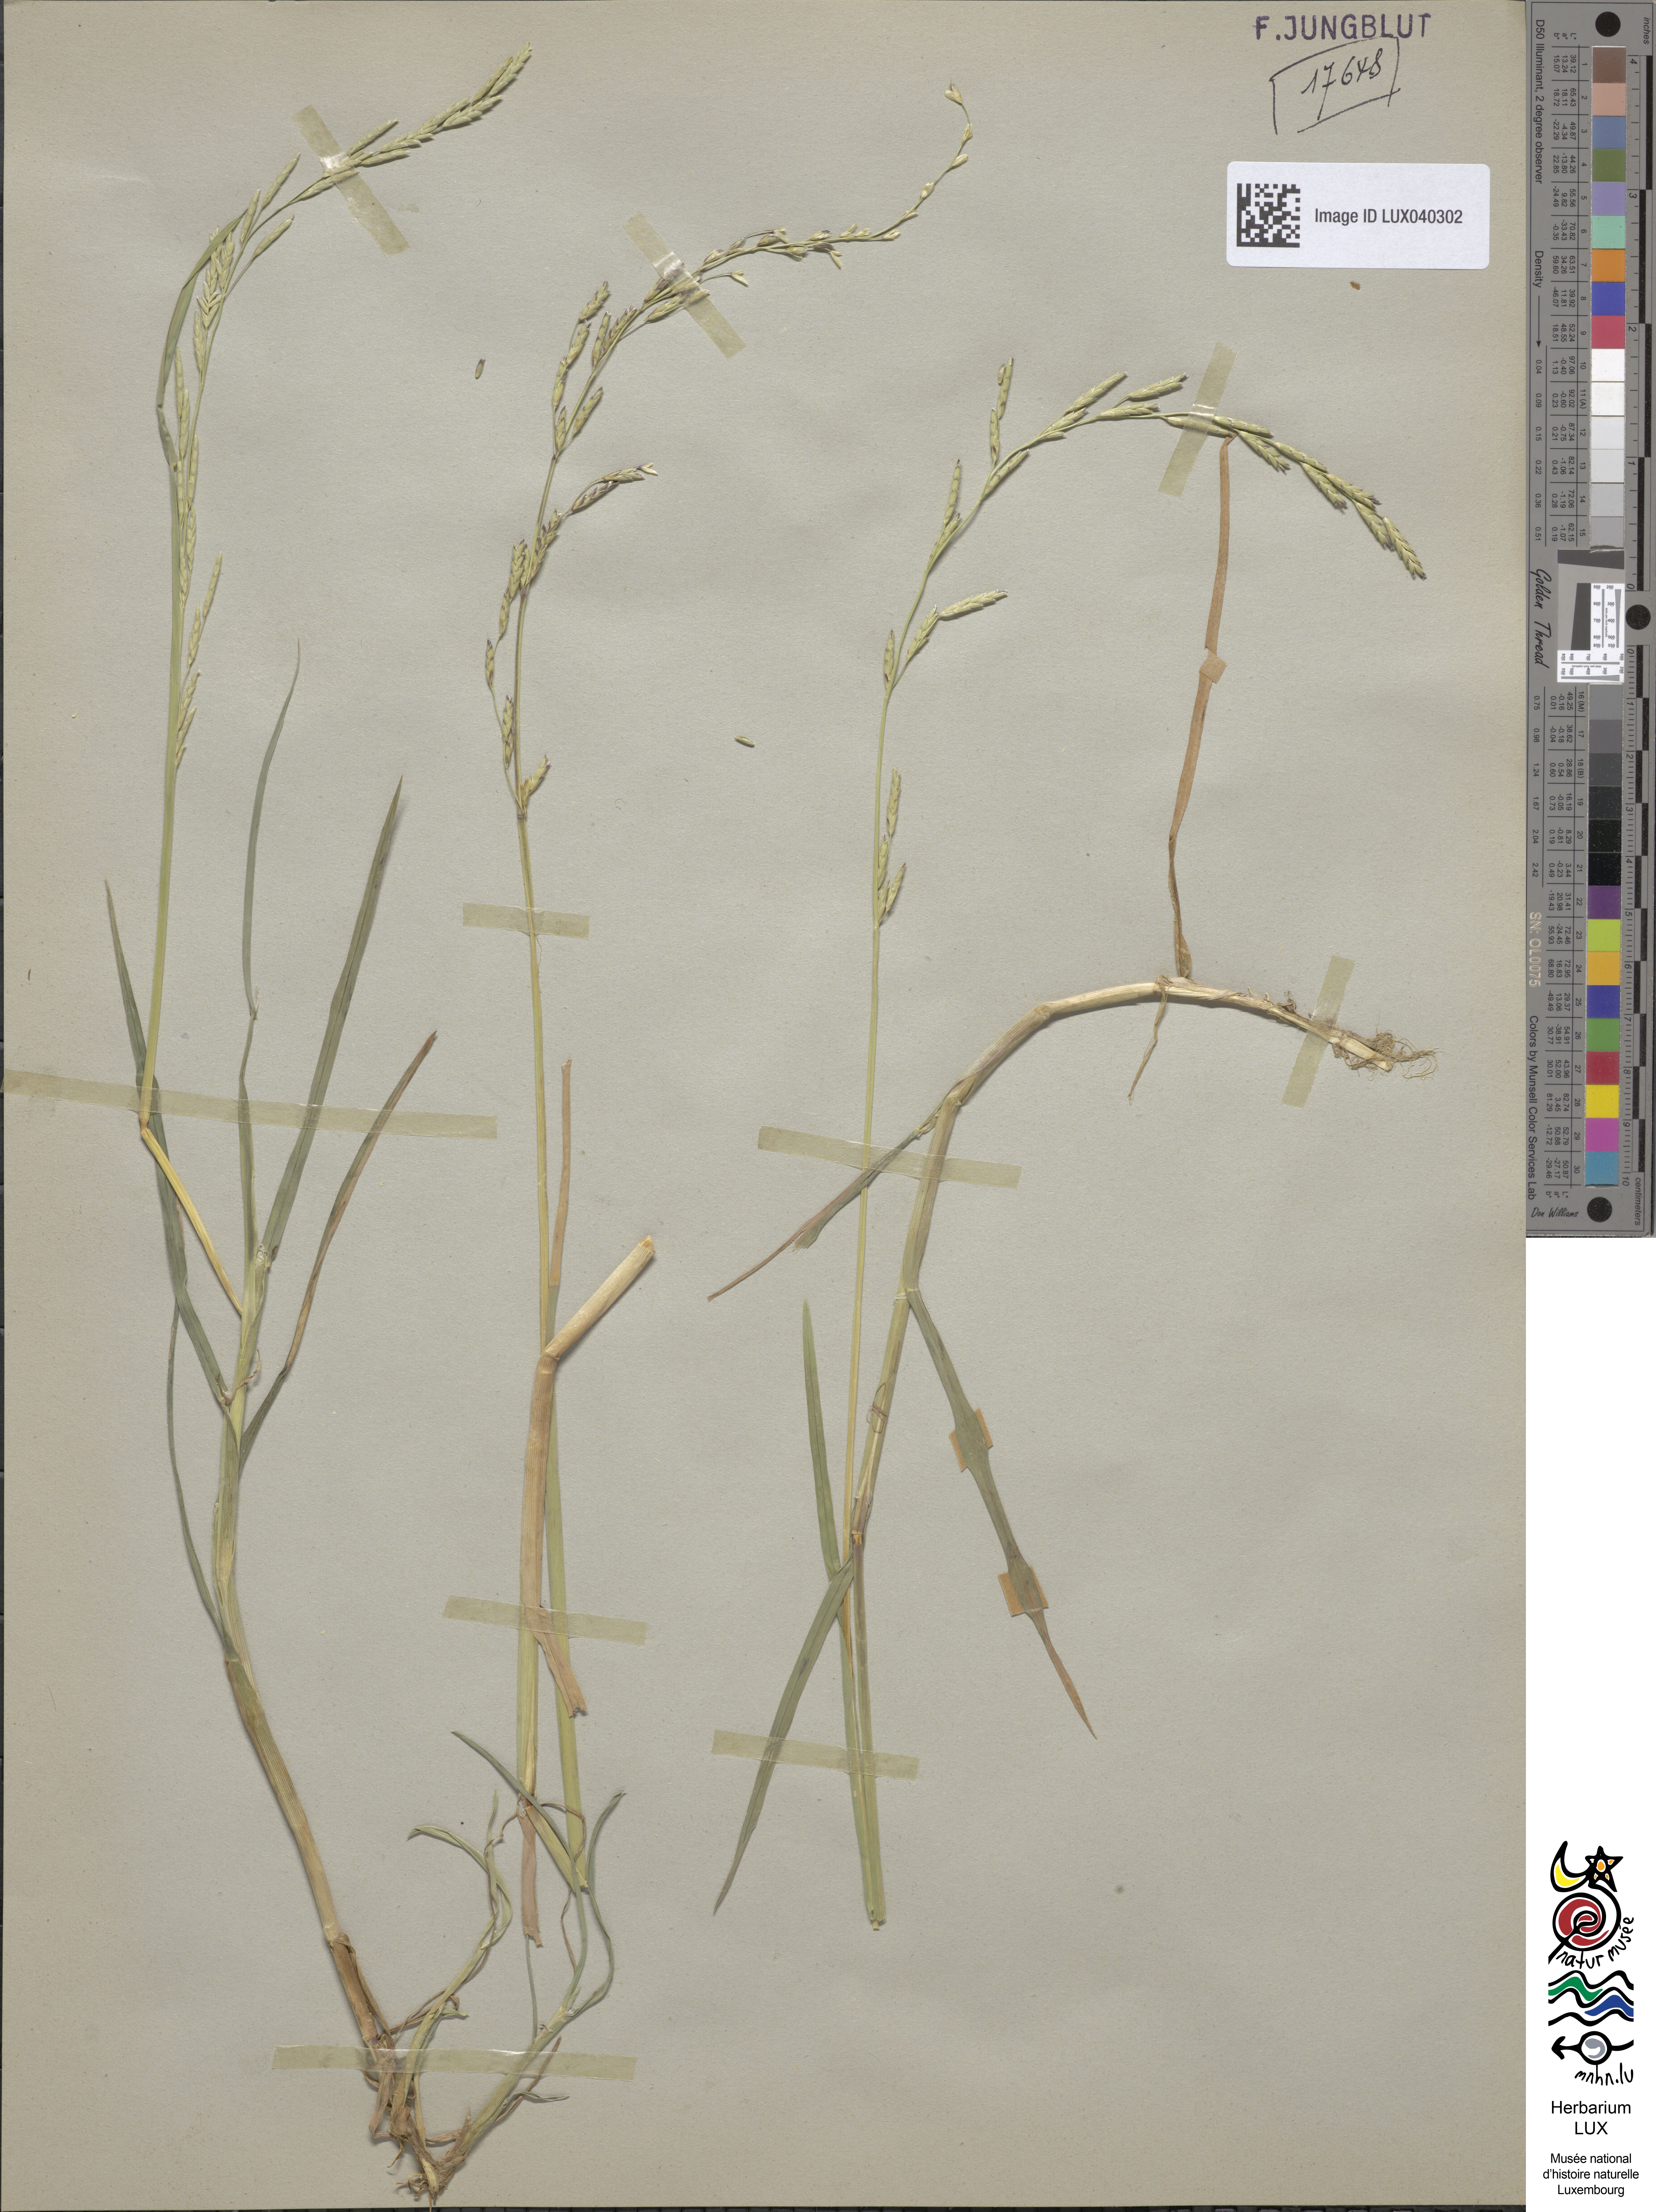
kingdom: Plantae
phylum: Tracheophyta
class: Liliopsida
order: Poales
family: Poaceae
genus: Glyceria
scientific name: Glyceria notata
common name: Plicate sweet-grass
